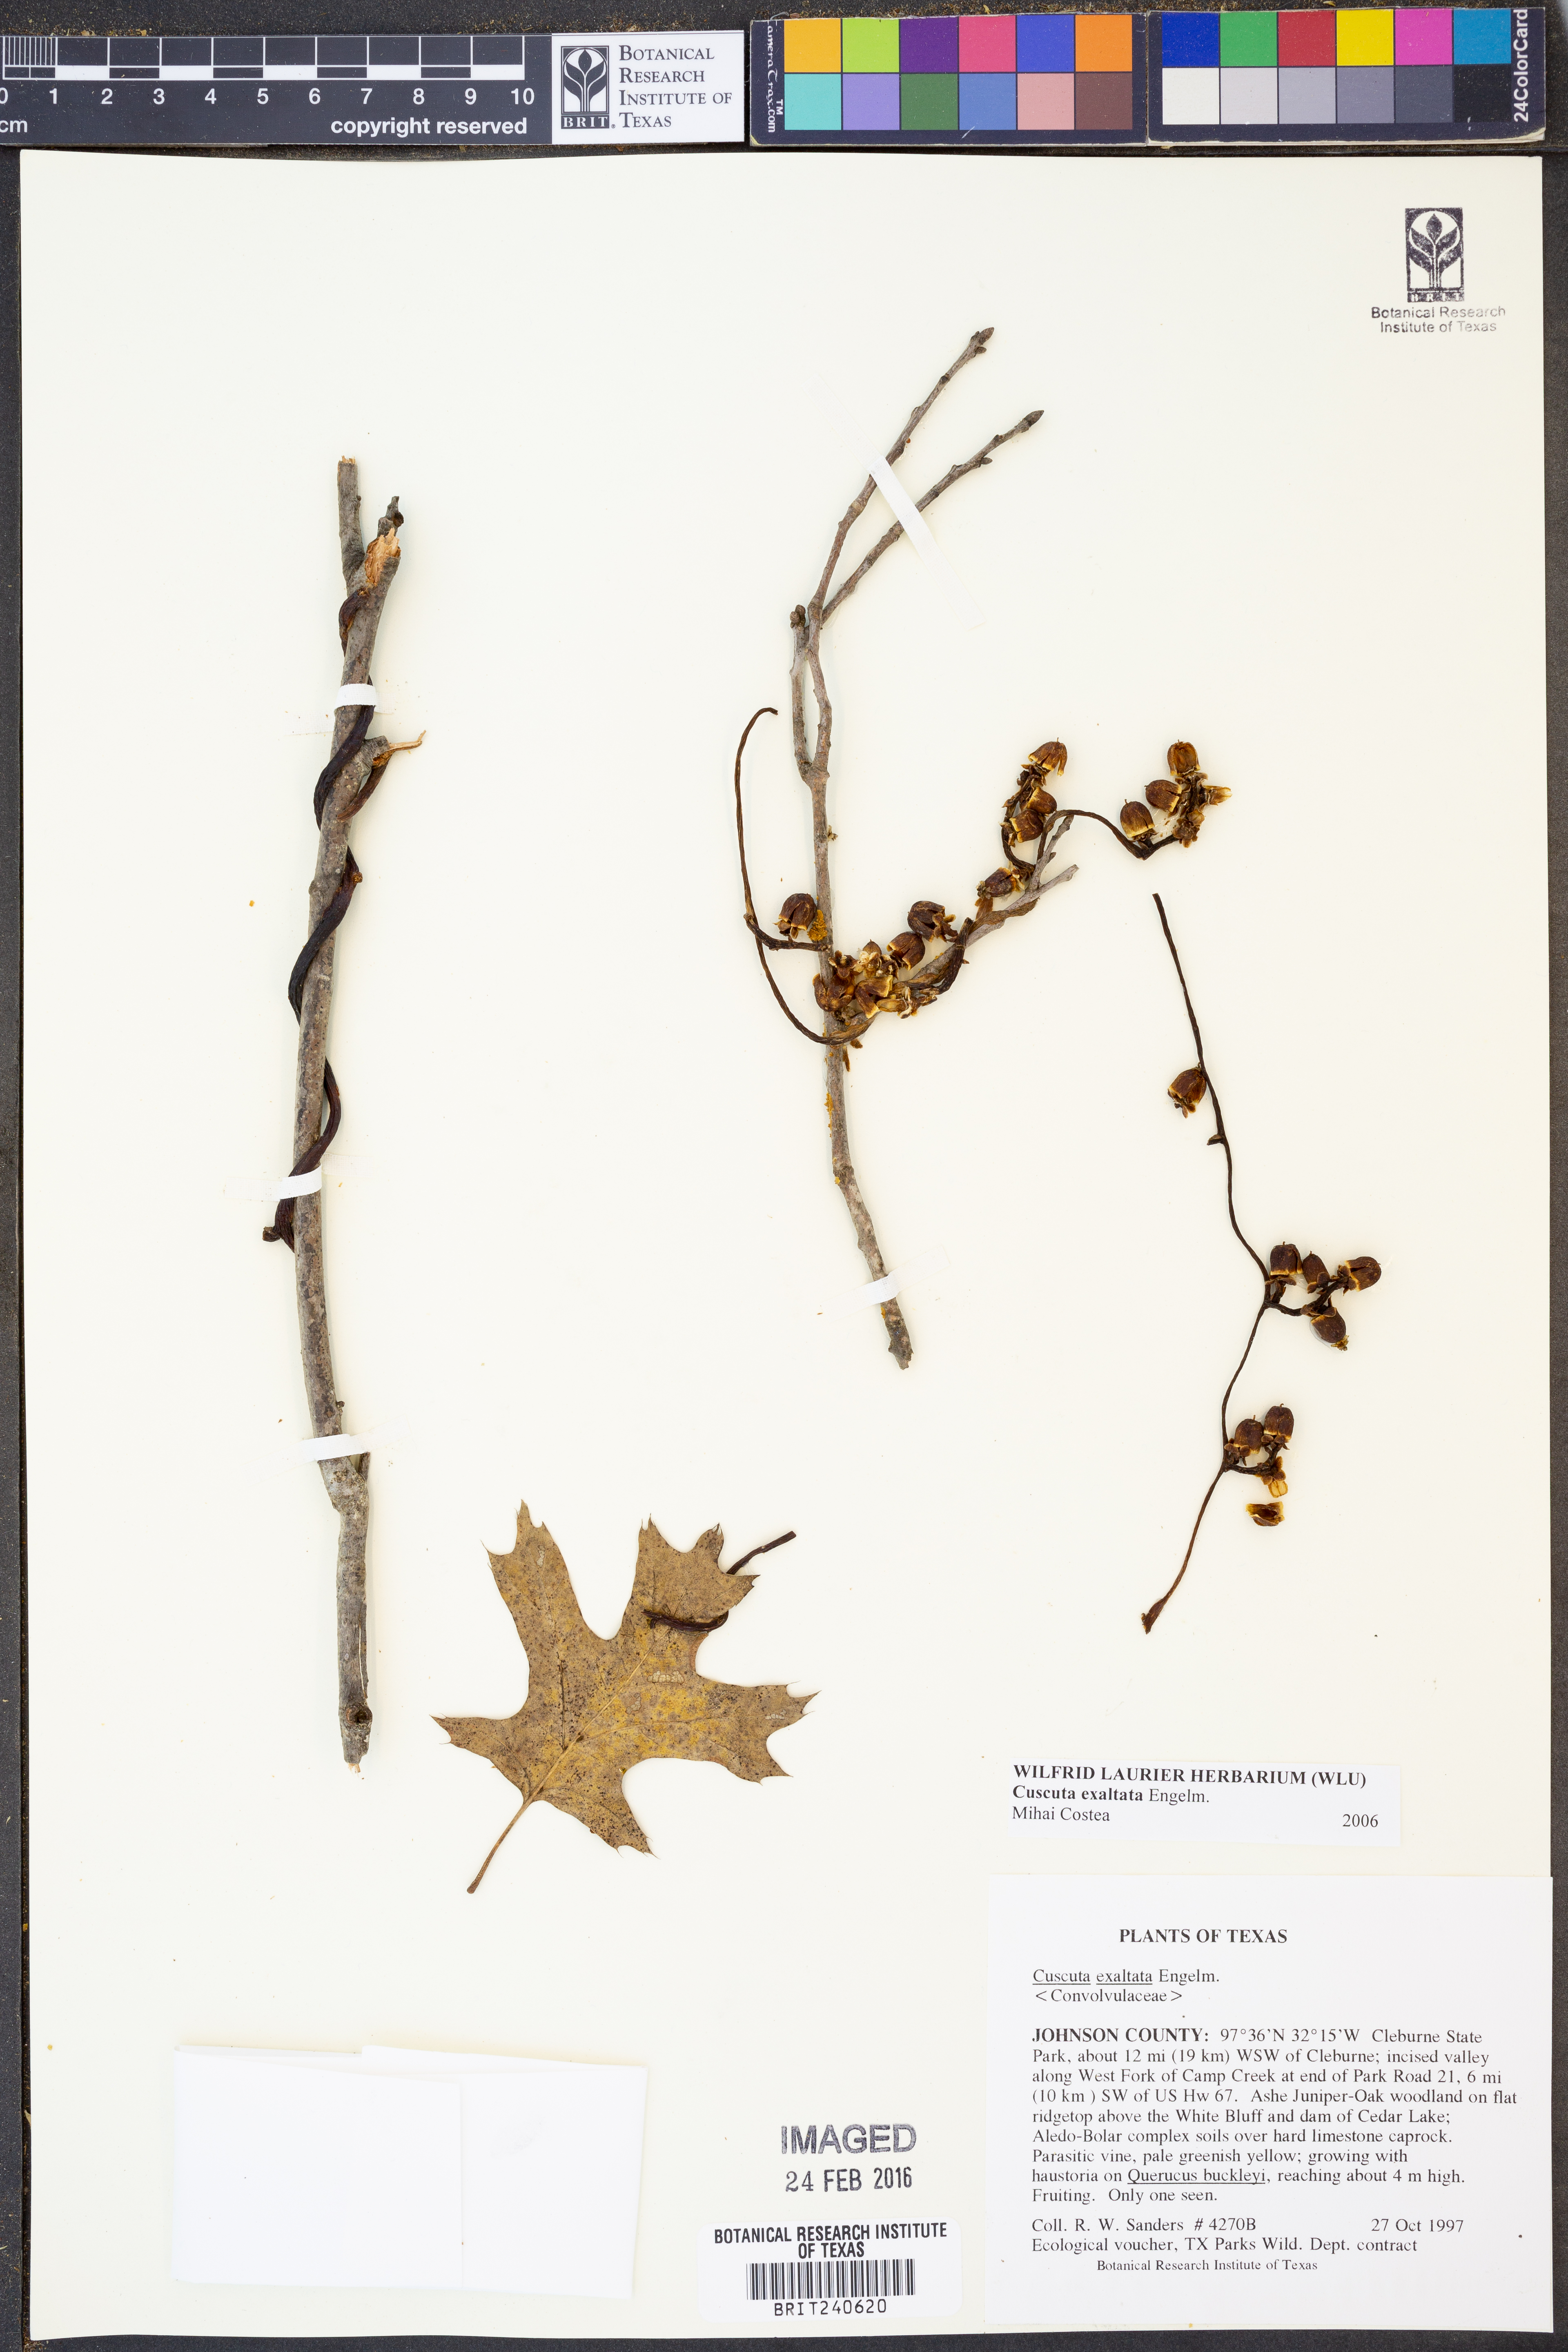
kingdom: Plantae
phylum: Tracheophyta
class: Magnoliopsida
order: Solanales
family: Convolvulaceae
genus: Cuscuta
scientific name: Cuscuta exaltata
